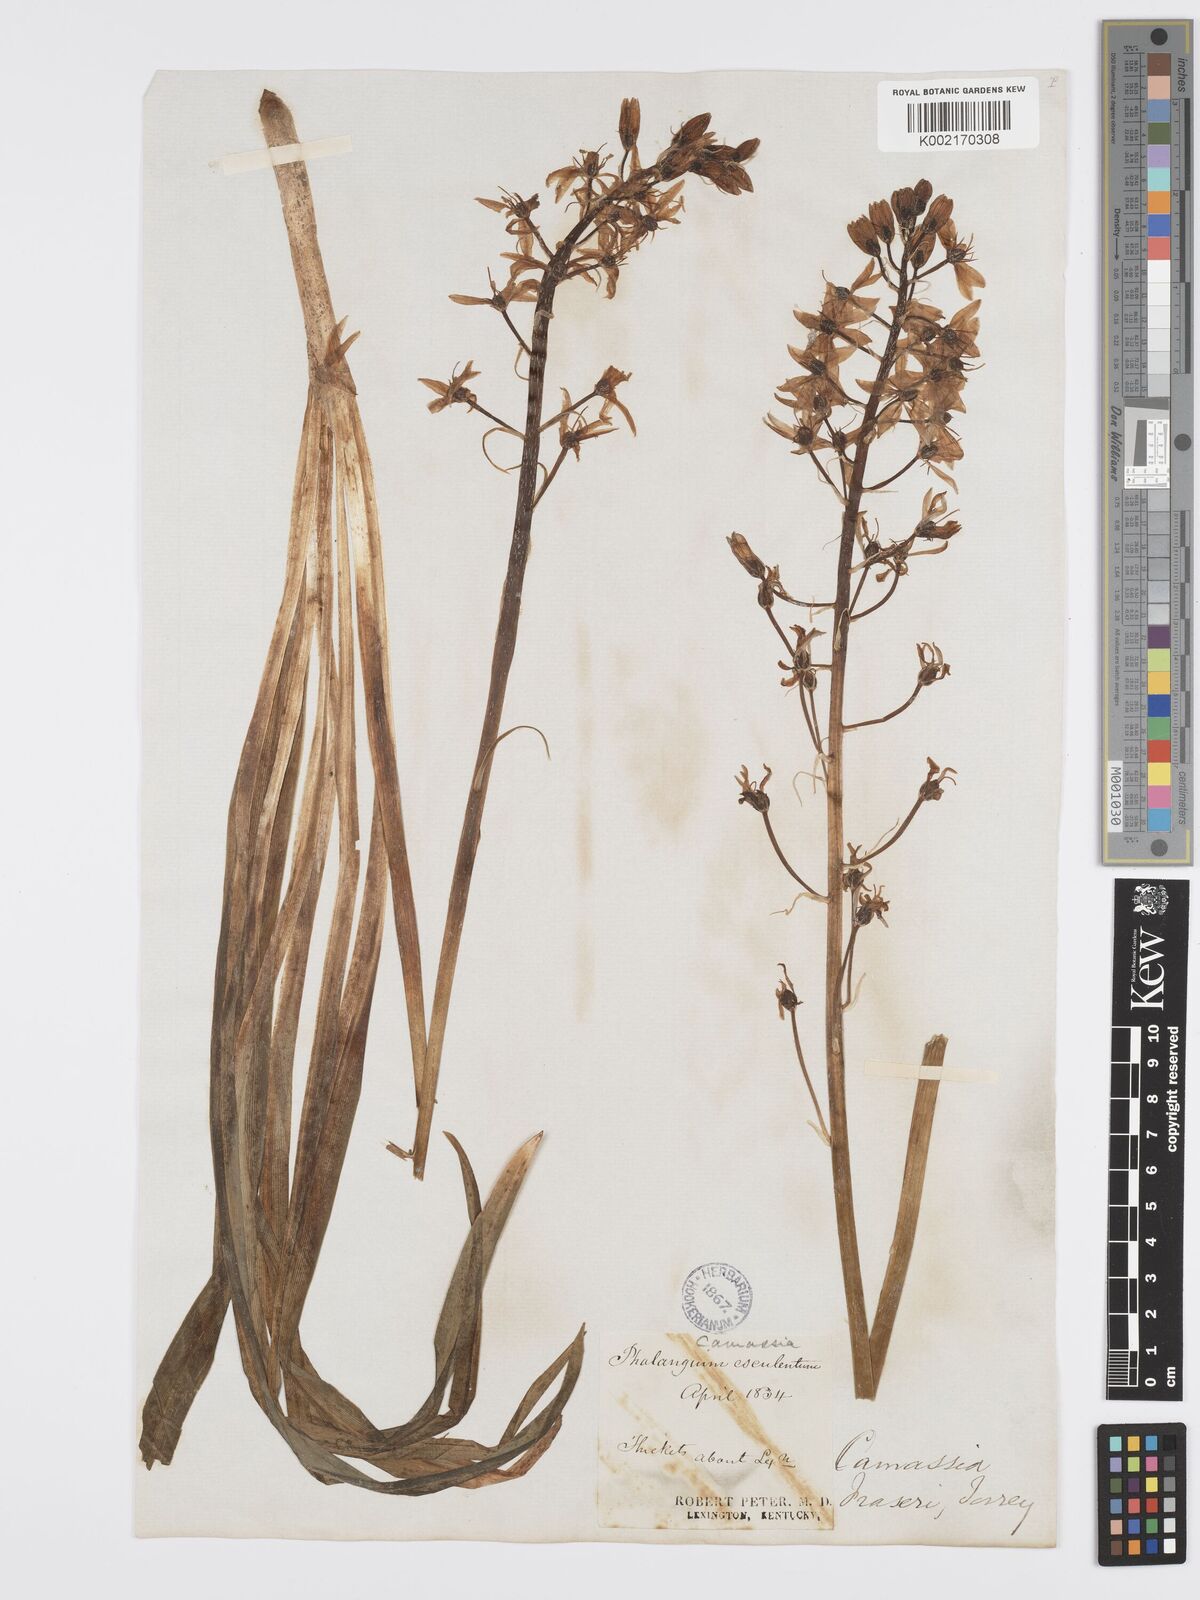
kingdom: Plantae
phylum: Tracheophyta
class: Liliopsida
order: Asparagales
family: Asparagaceae
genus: Camassia
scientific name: Camassia scilloides
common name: Wild hyacinth
